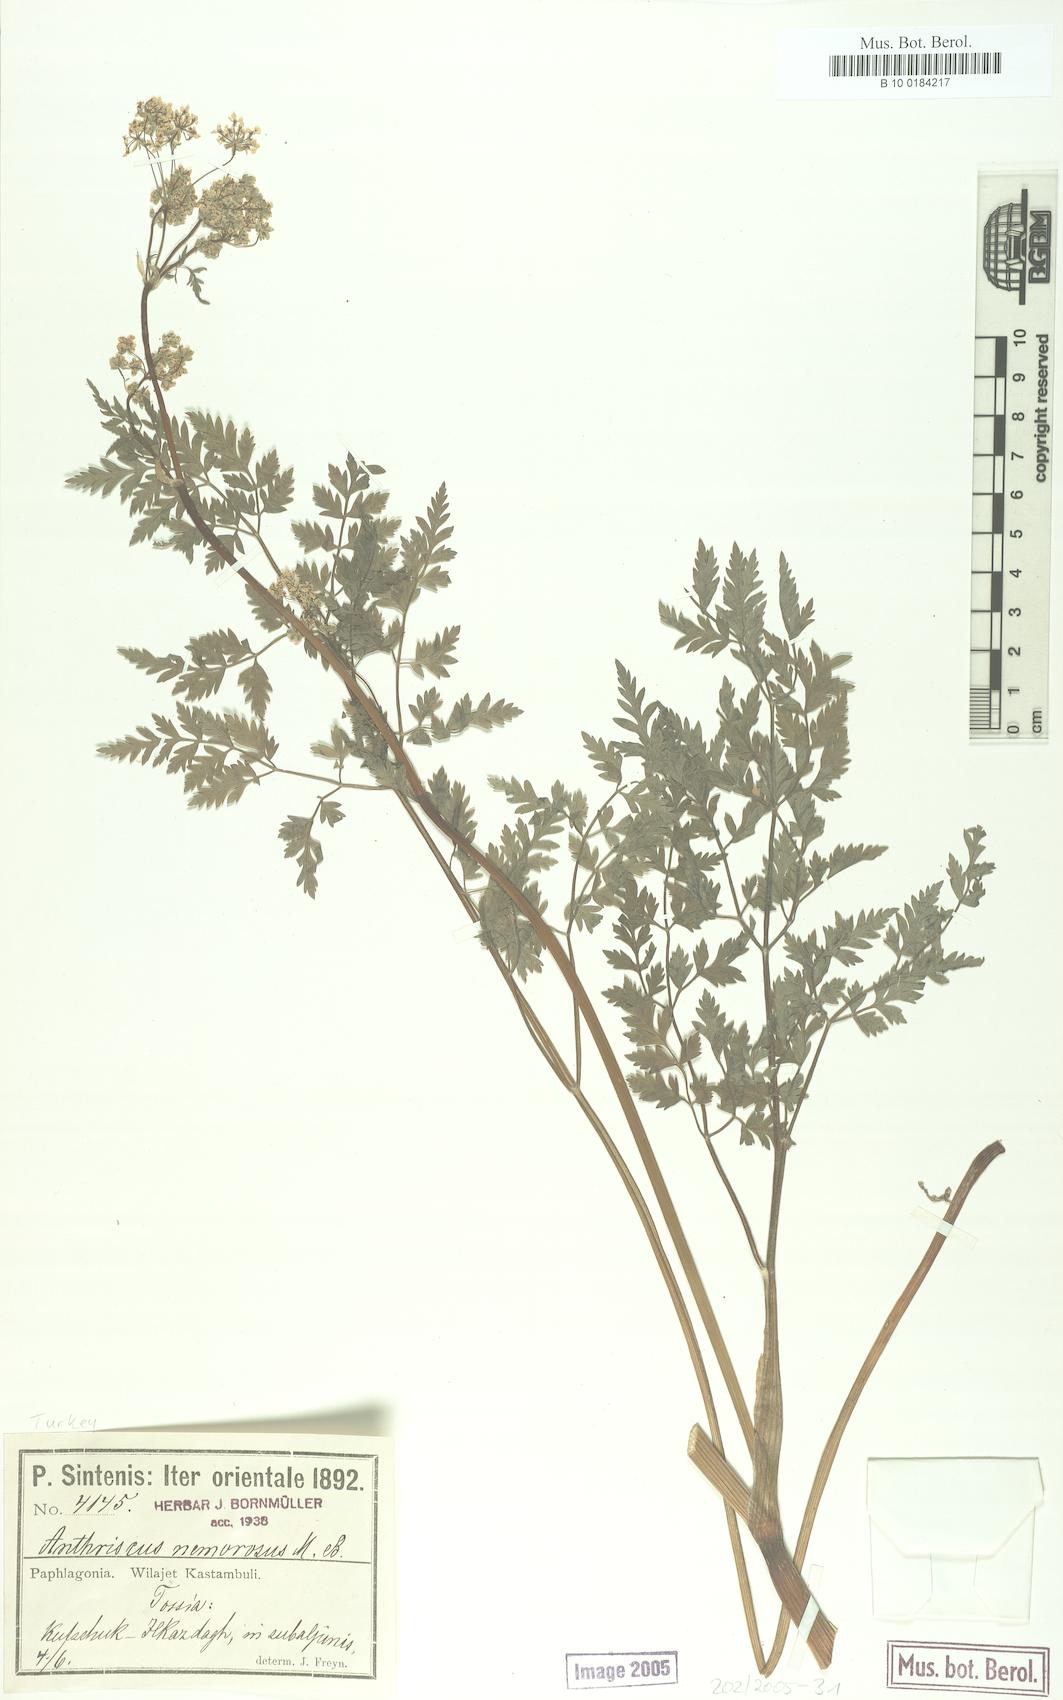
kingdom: Plantae
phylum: Tracheophyta
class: Magnoliopsida
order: Apiales
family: Apiaceae
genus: Anthriscus
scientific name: Anthriscus sylvestris
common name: Cow parsley
